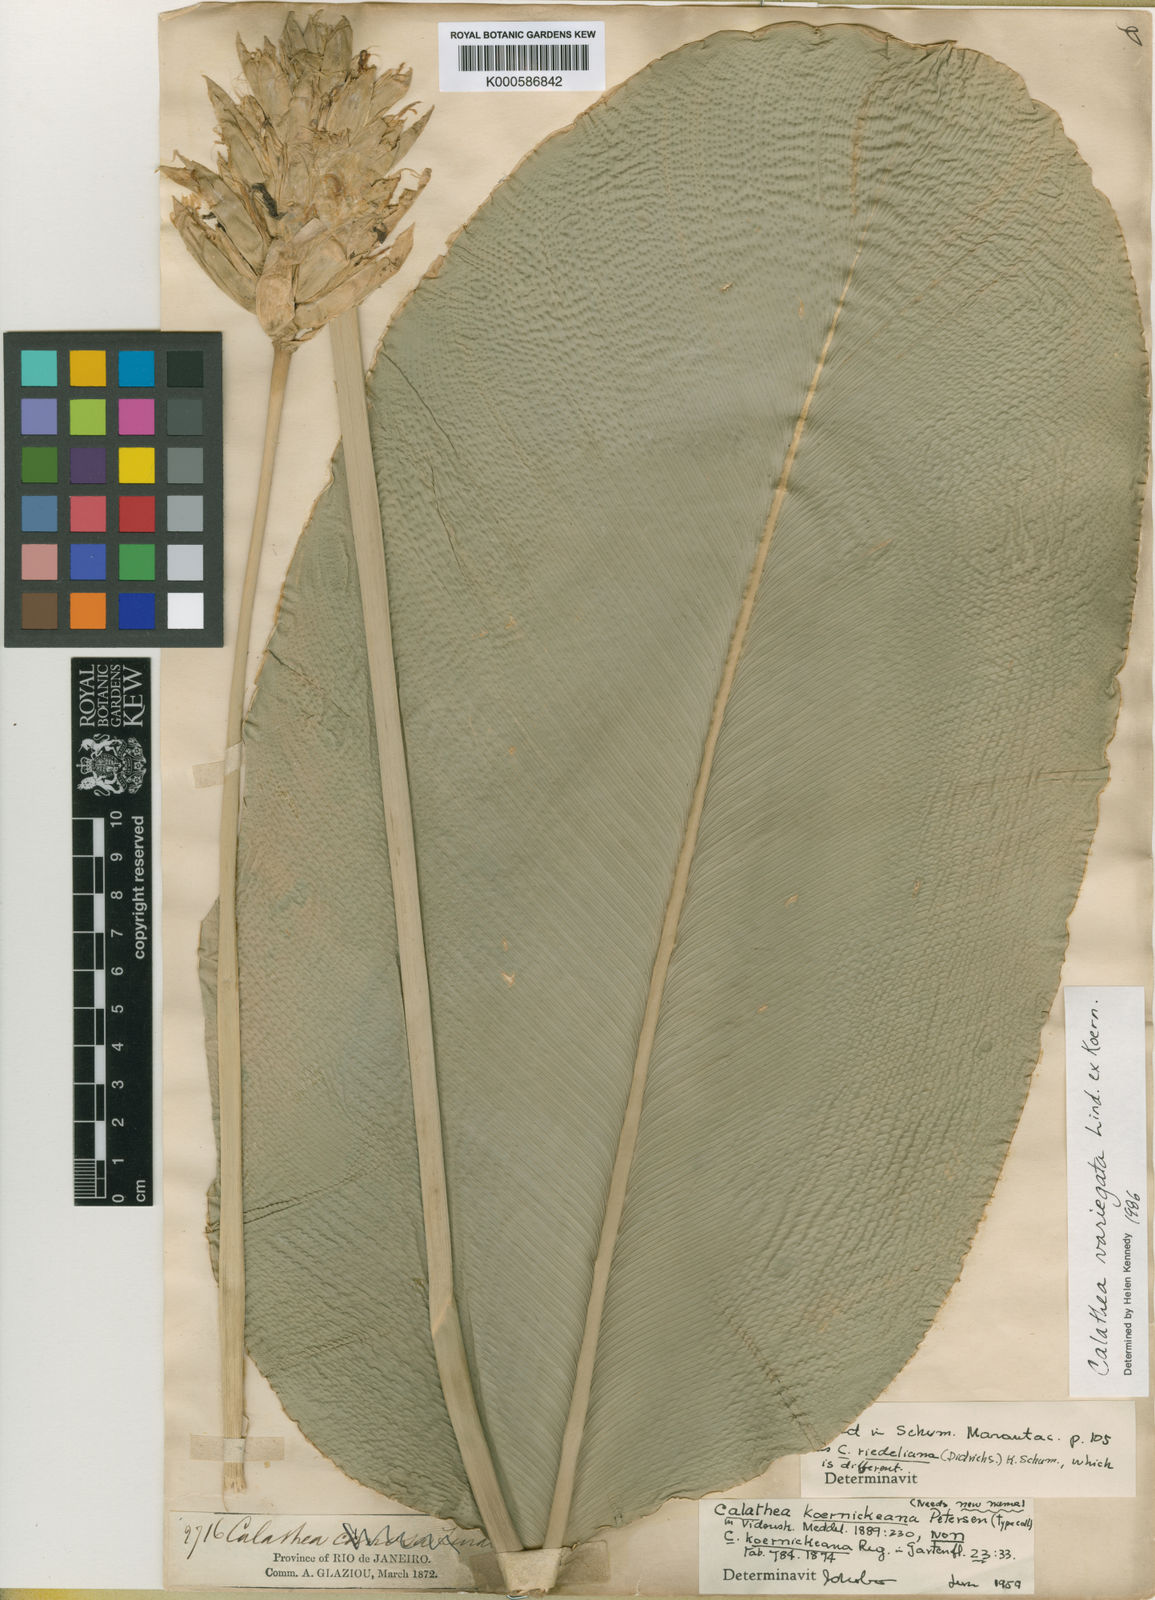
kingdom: Plantae
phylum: Tracheophyta
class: Liliopsida
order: Zingiberales
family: Marantaceae
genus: Calathea
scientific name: Calathea
